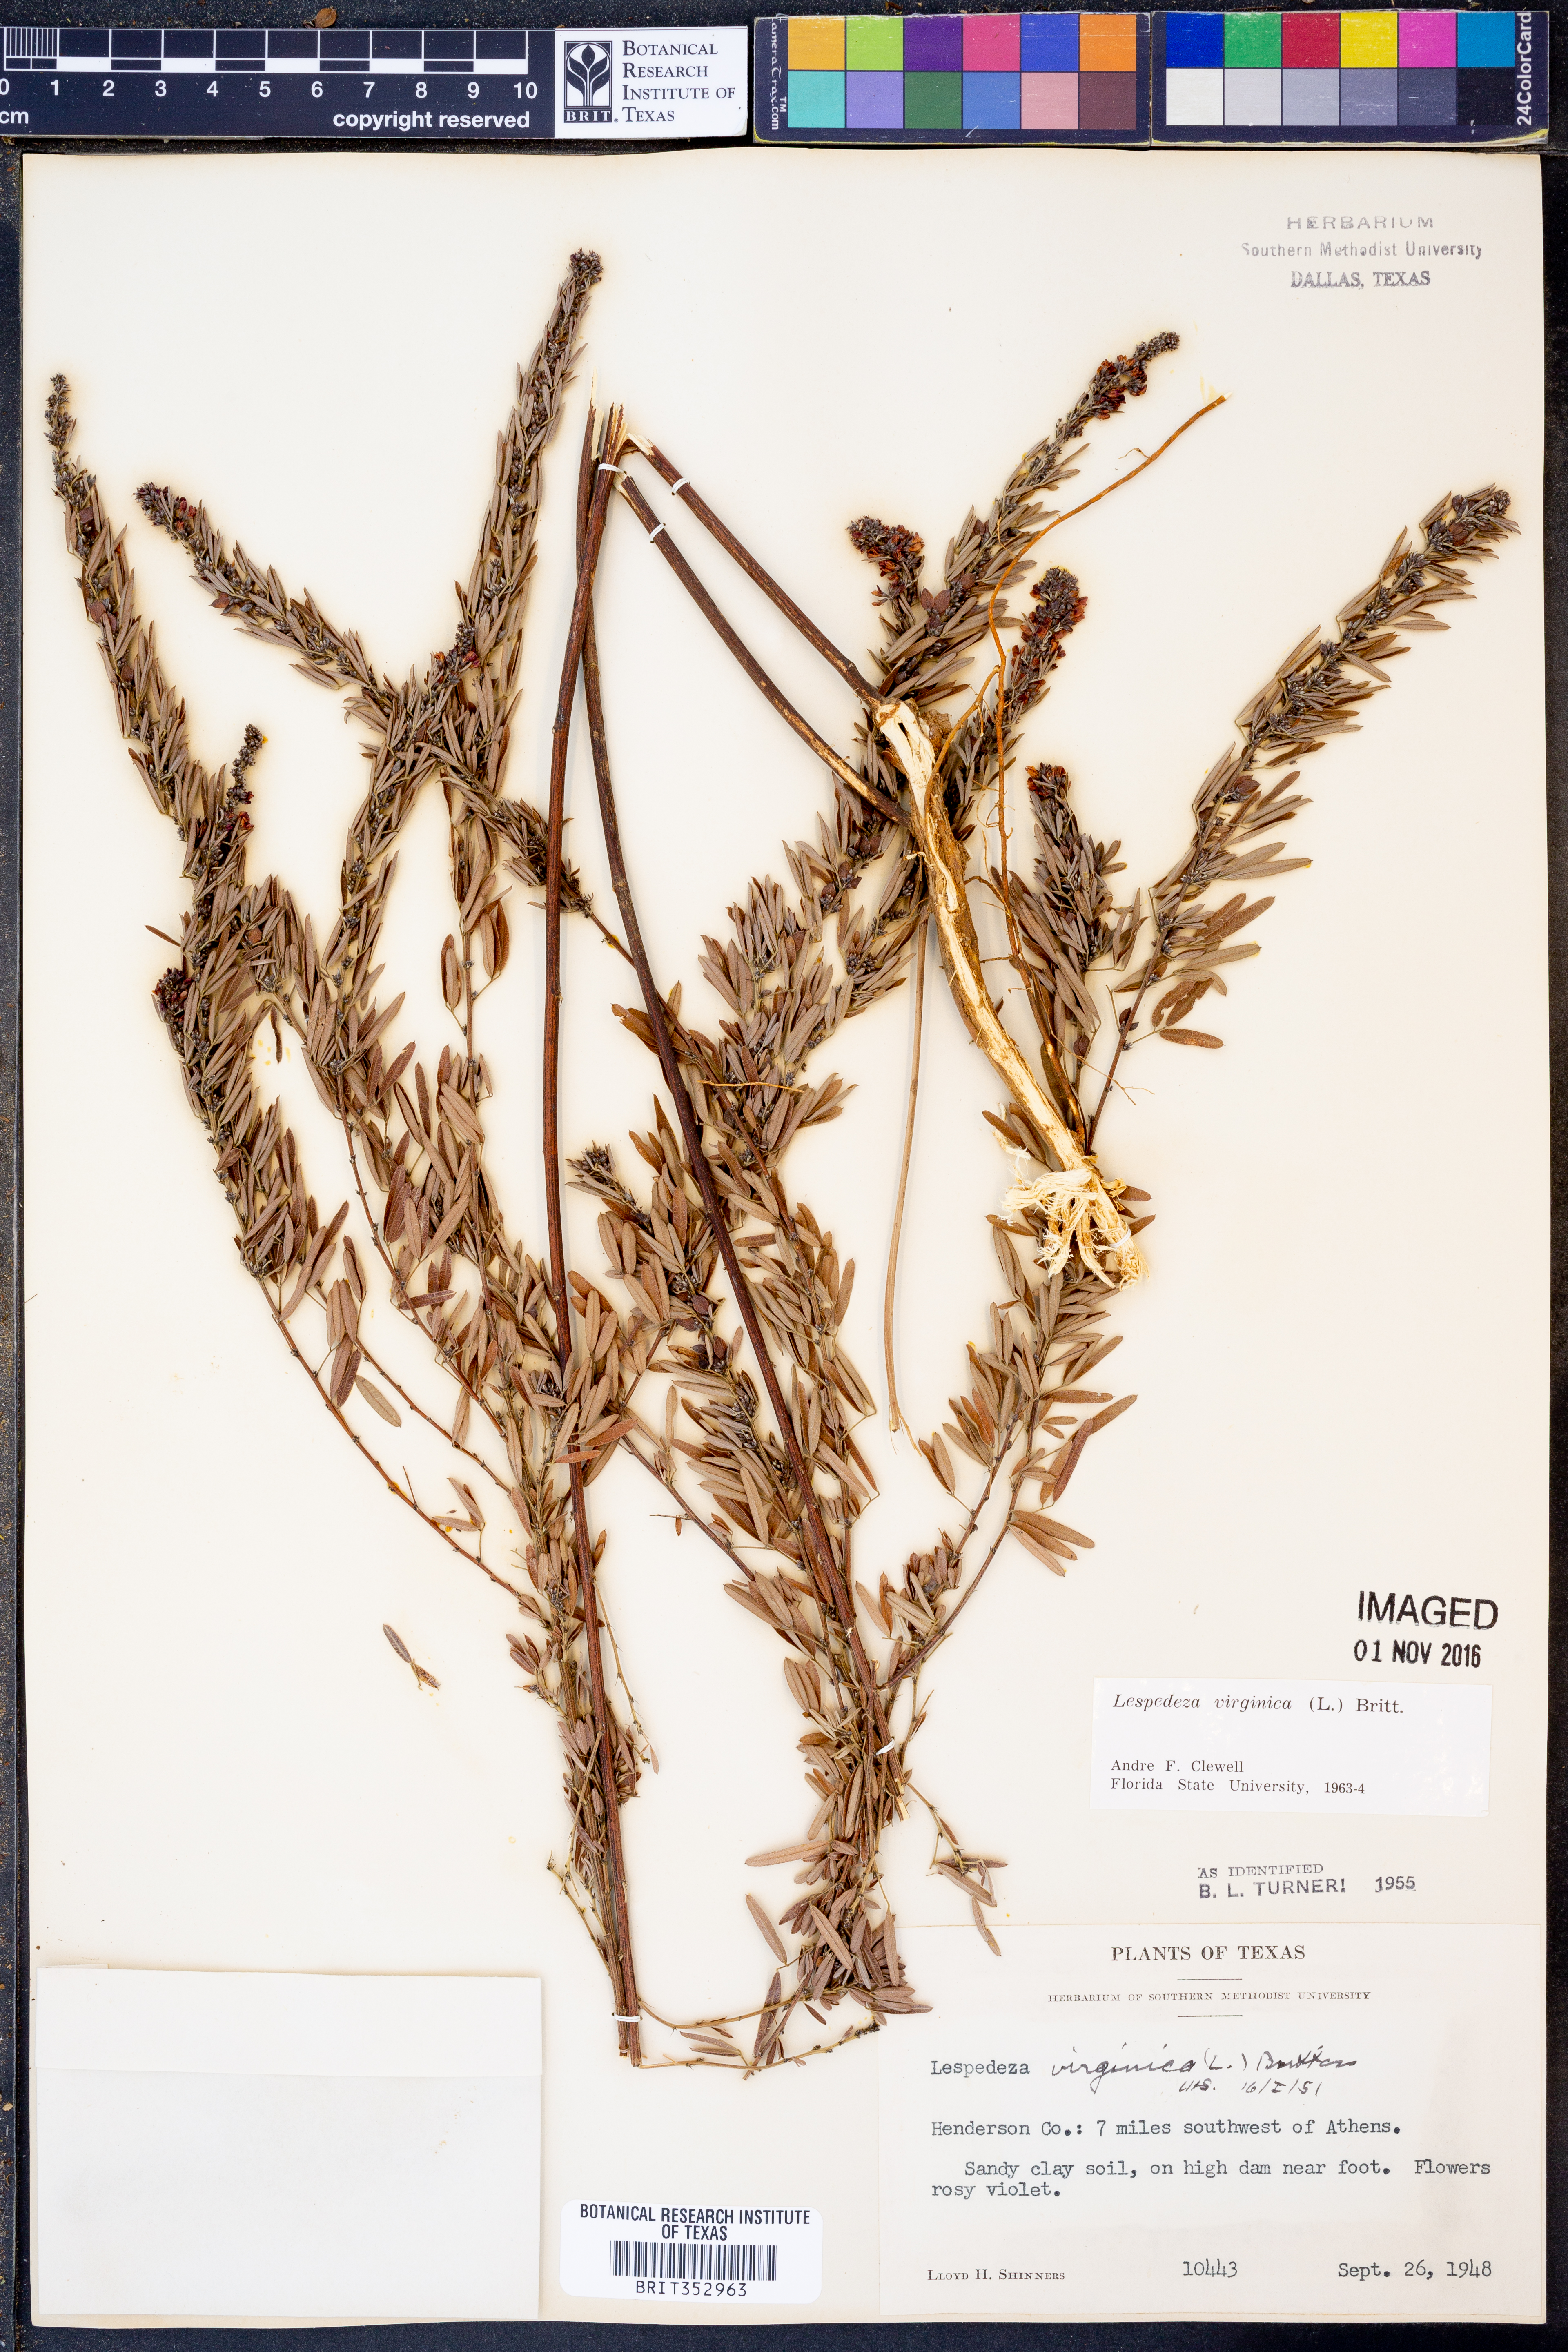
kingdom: Plantae
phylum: Tracheophyta
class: Magnoliopsida
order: Fabales
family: Fabaceae
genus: Lespedeza
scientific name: Lespedeza virginica
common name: Slender bush-clover
